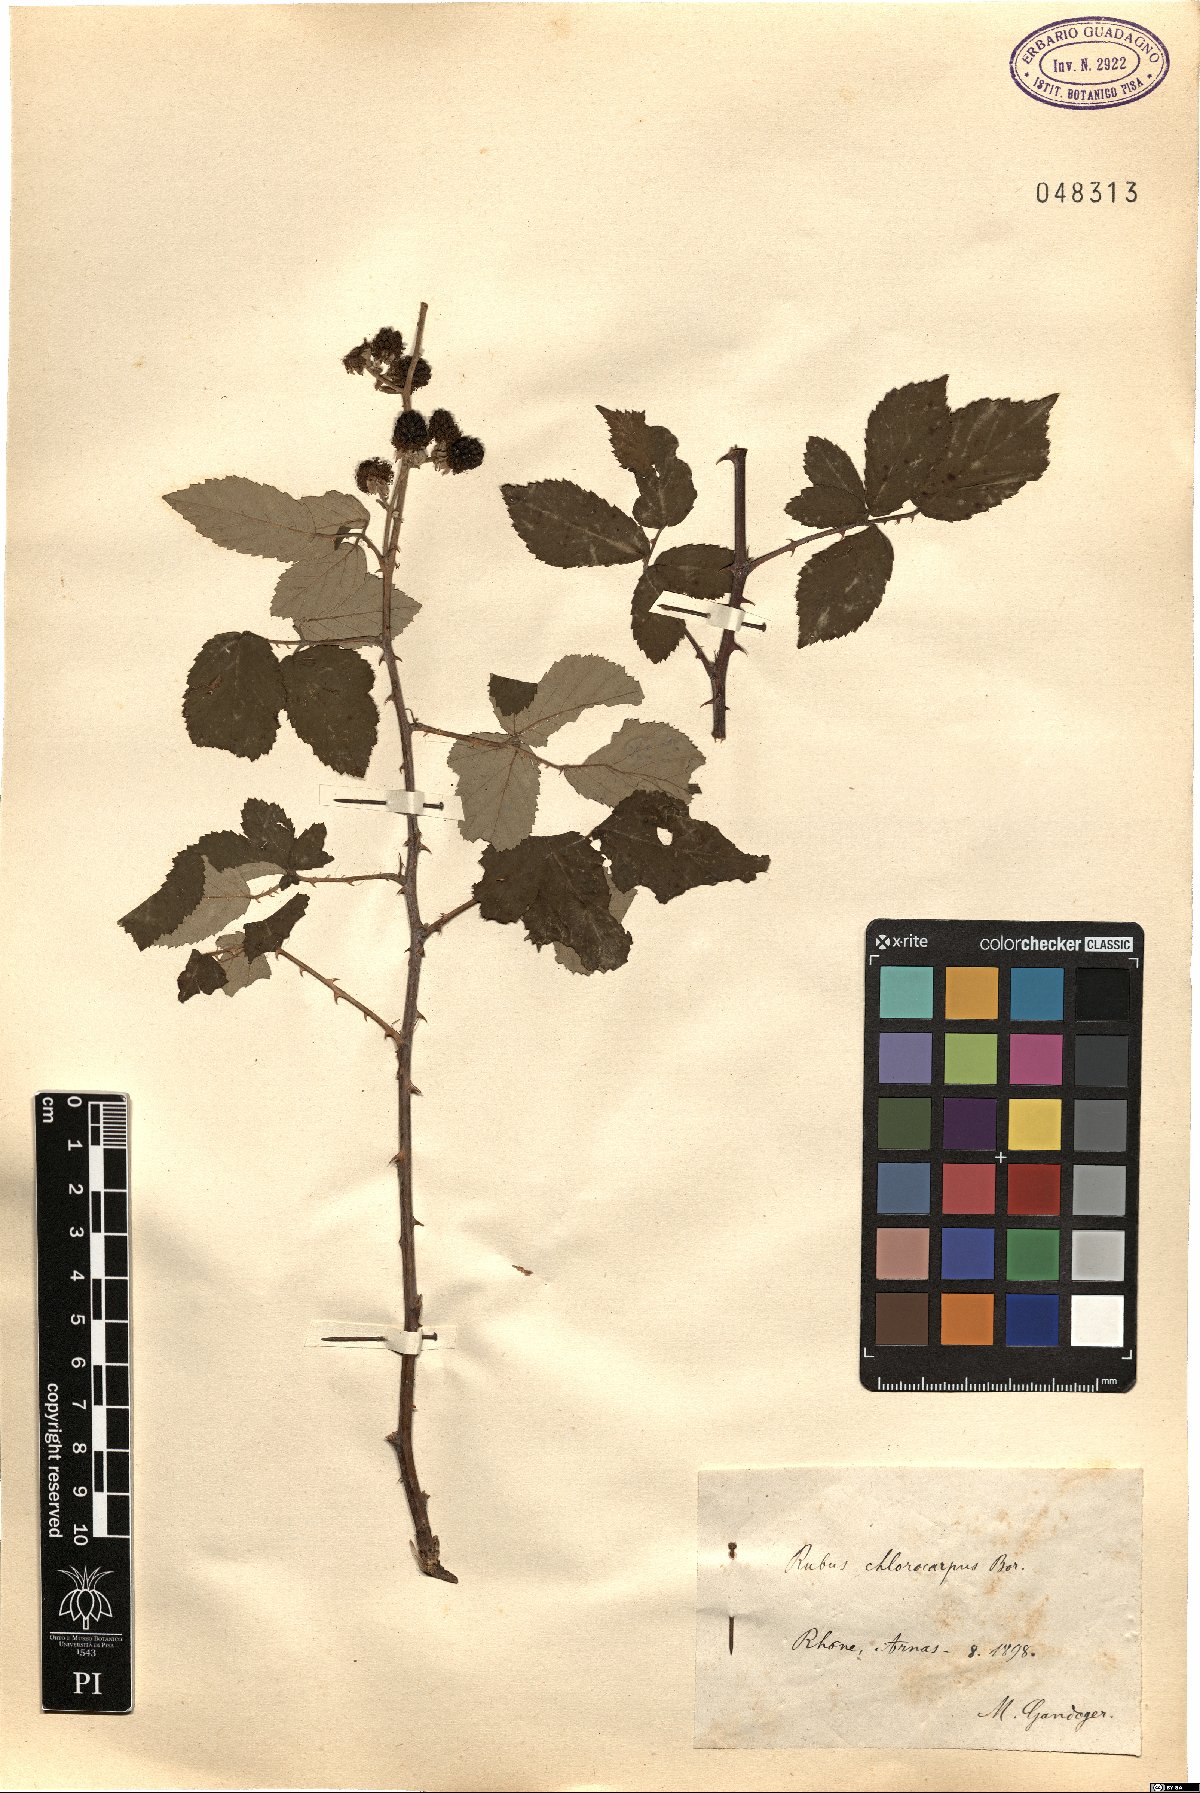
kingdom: Plantae
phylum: Tracheophyta
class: Magnoliopsida
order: Rosales
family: Rosaceae
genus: Rubus
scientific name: Rubus ulmifolius
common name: Elmleaf blackberry
